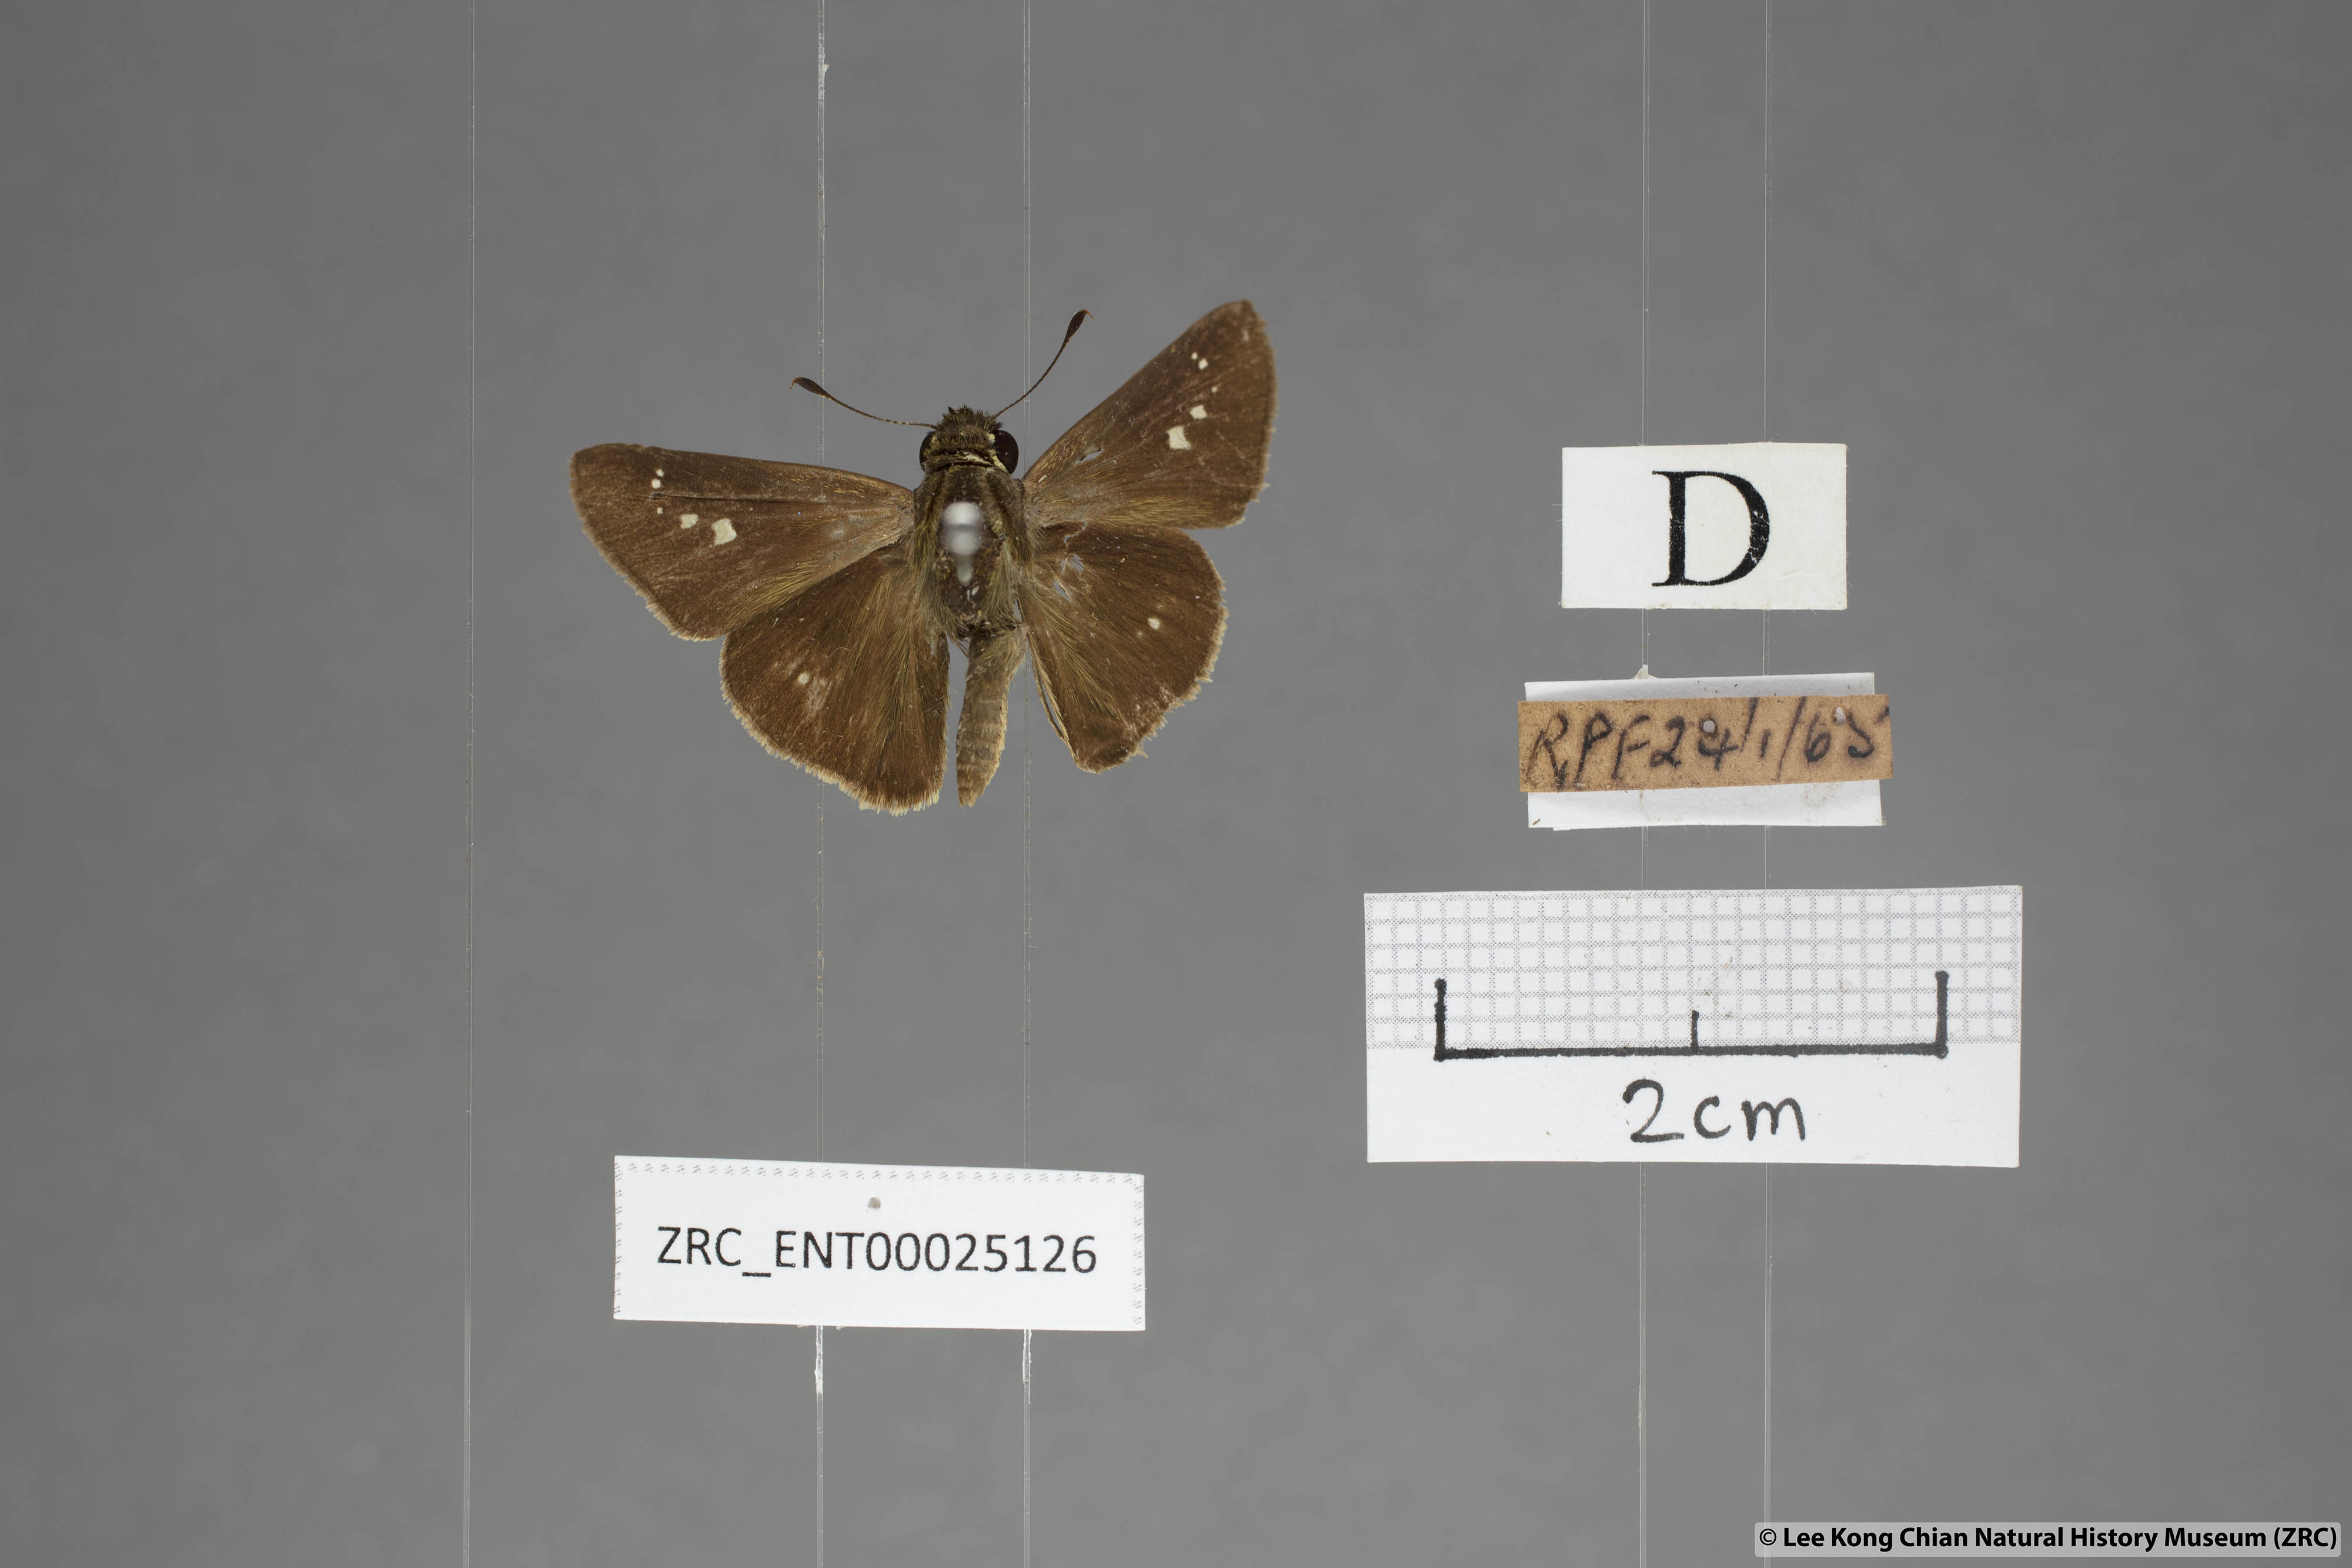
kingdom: Animalia
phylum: Arthropoda
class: Insecta
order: Lepidoptera
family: Hesperiidae
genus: Parnara
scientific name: Parnara naso
